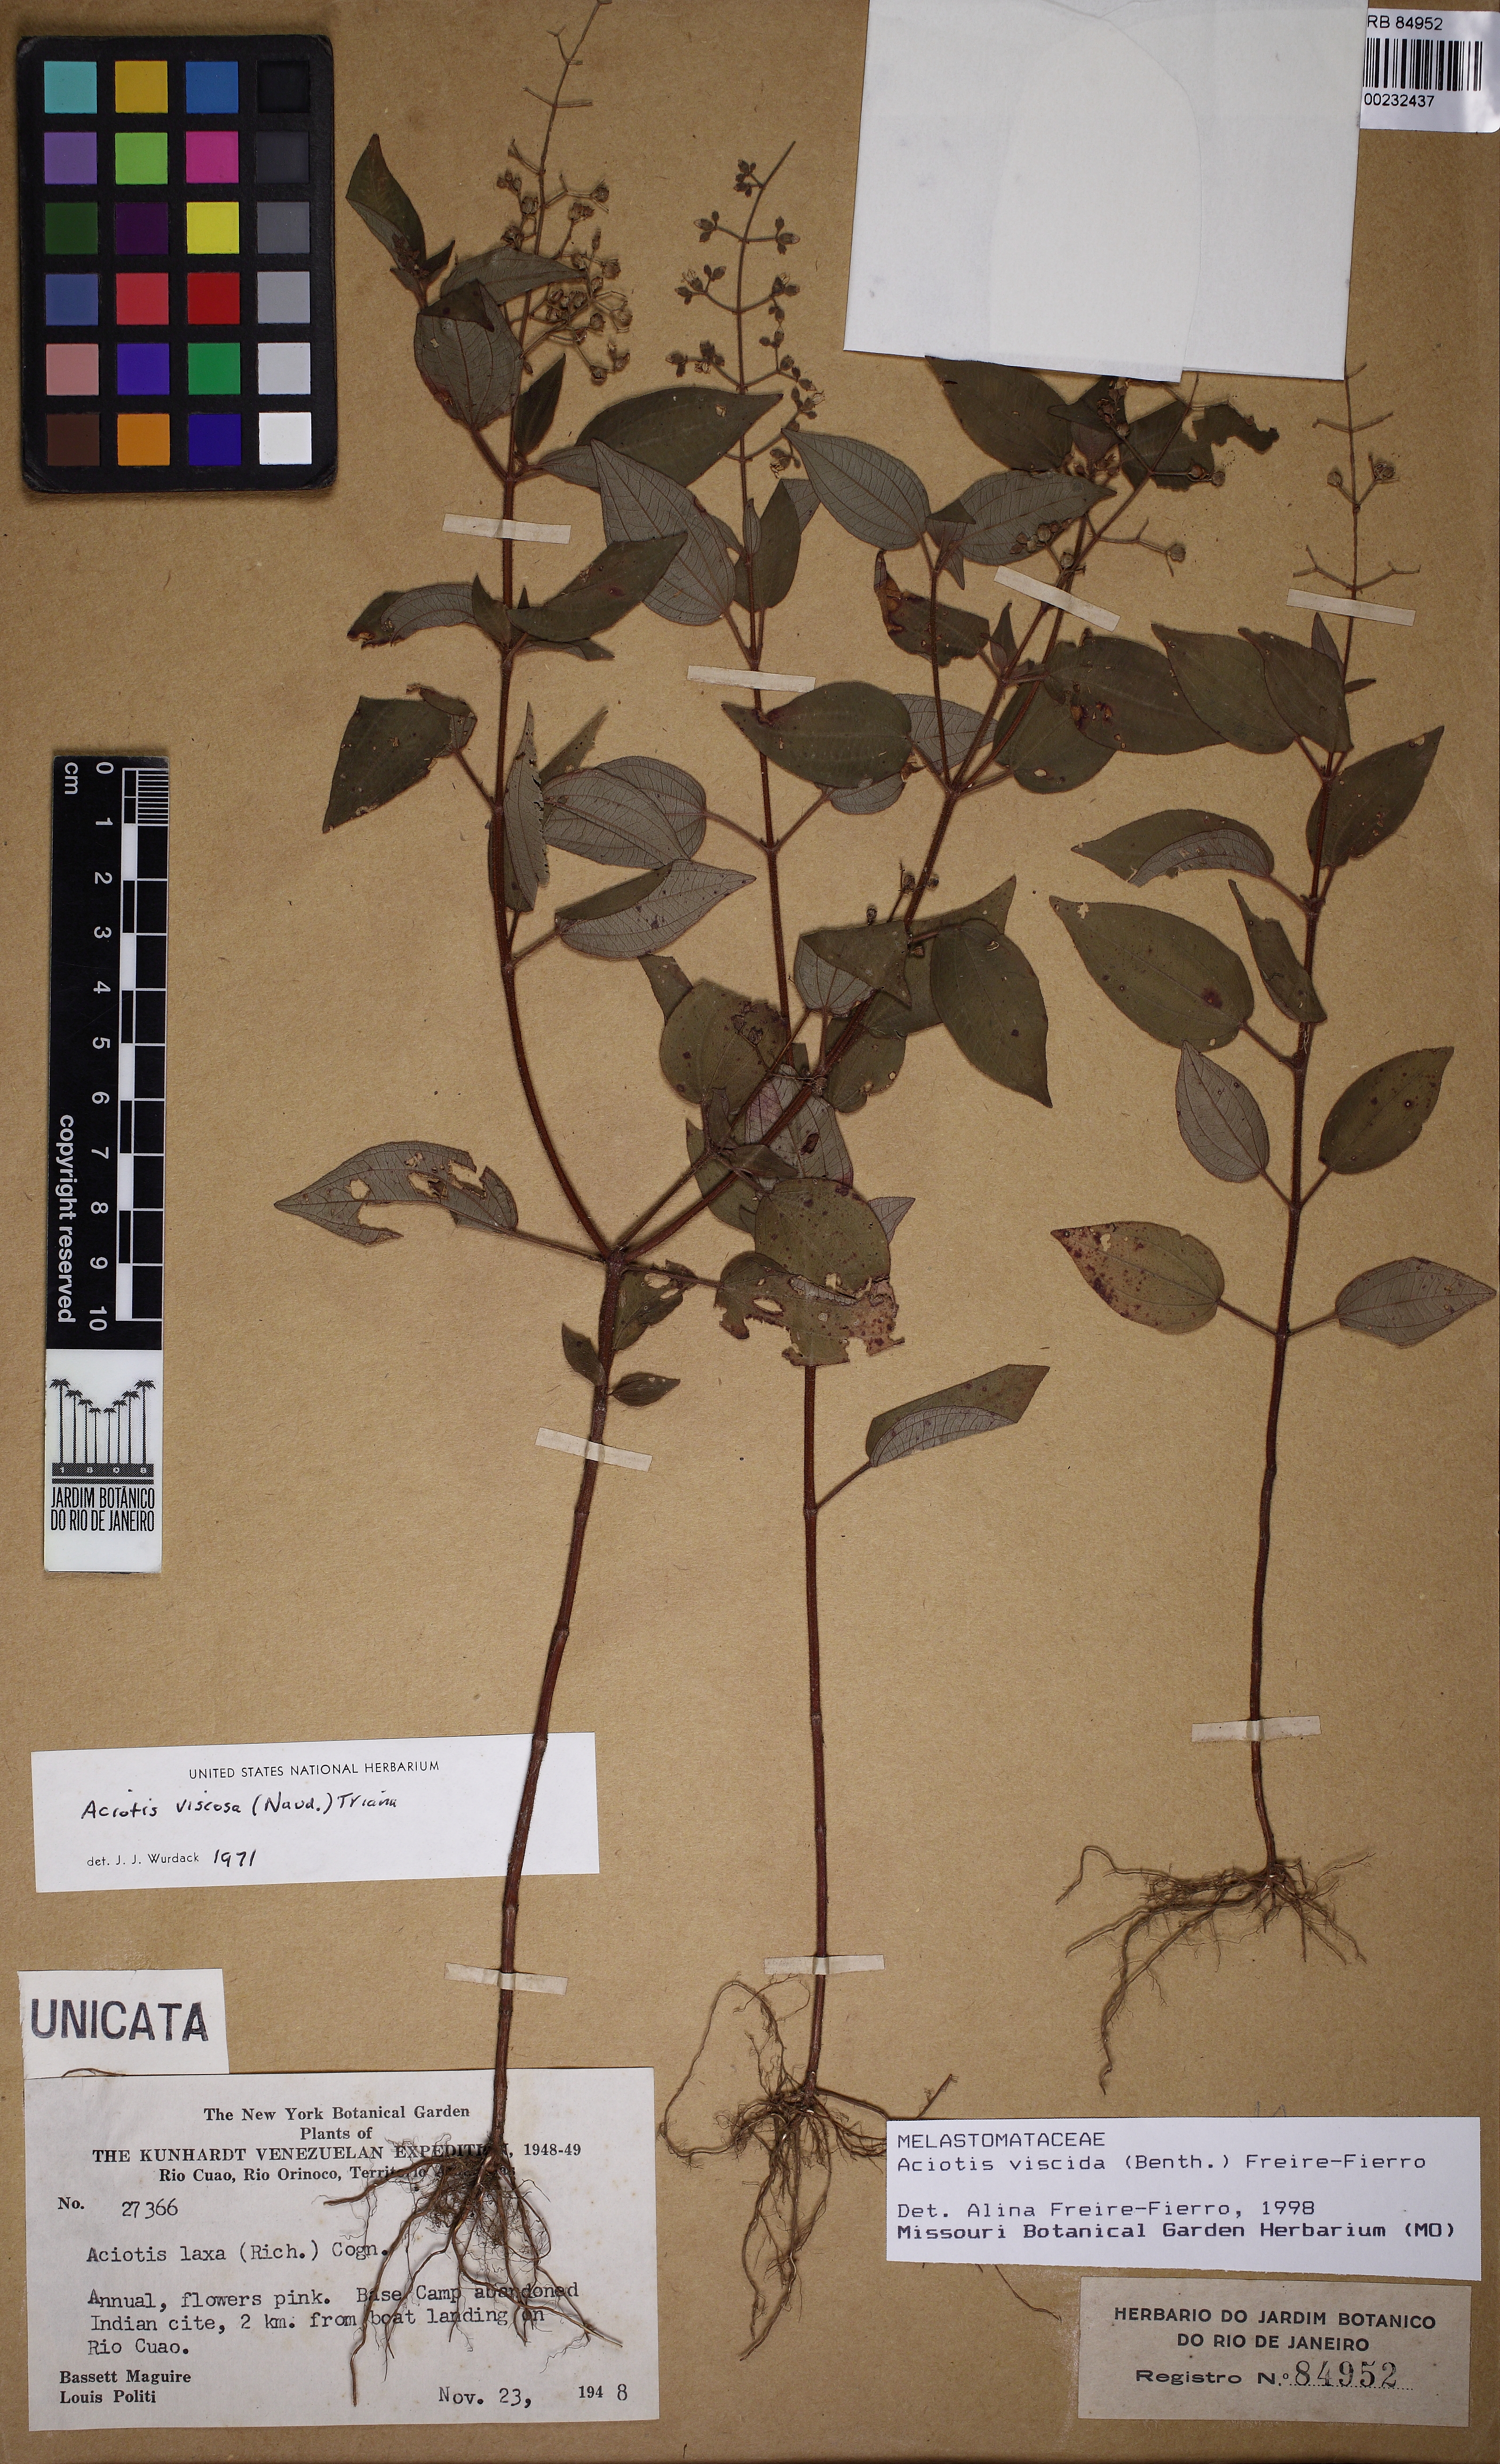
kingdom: Plantae
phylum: Tracheophyta
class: Magnoliopsida
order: Myrtales
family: Melastomataceae
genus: Aciotis
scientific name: Aciotis viscida
